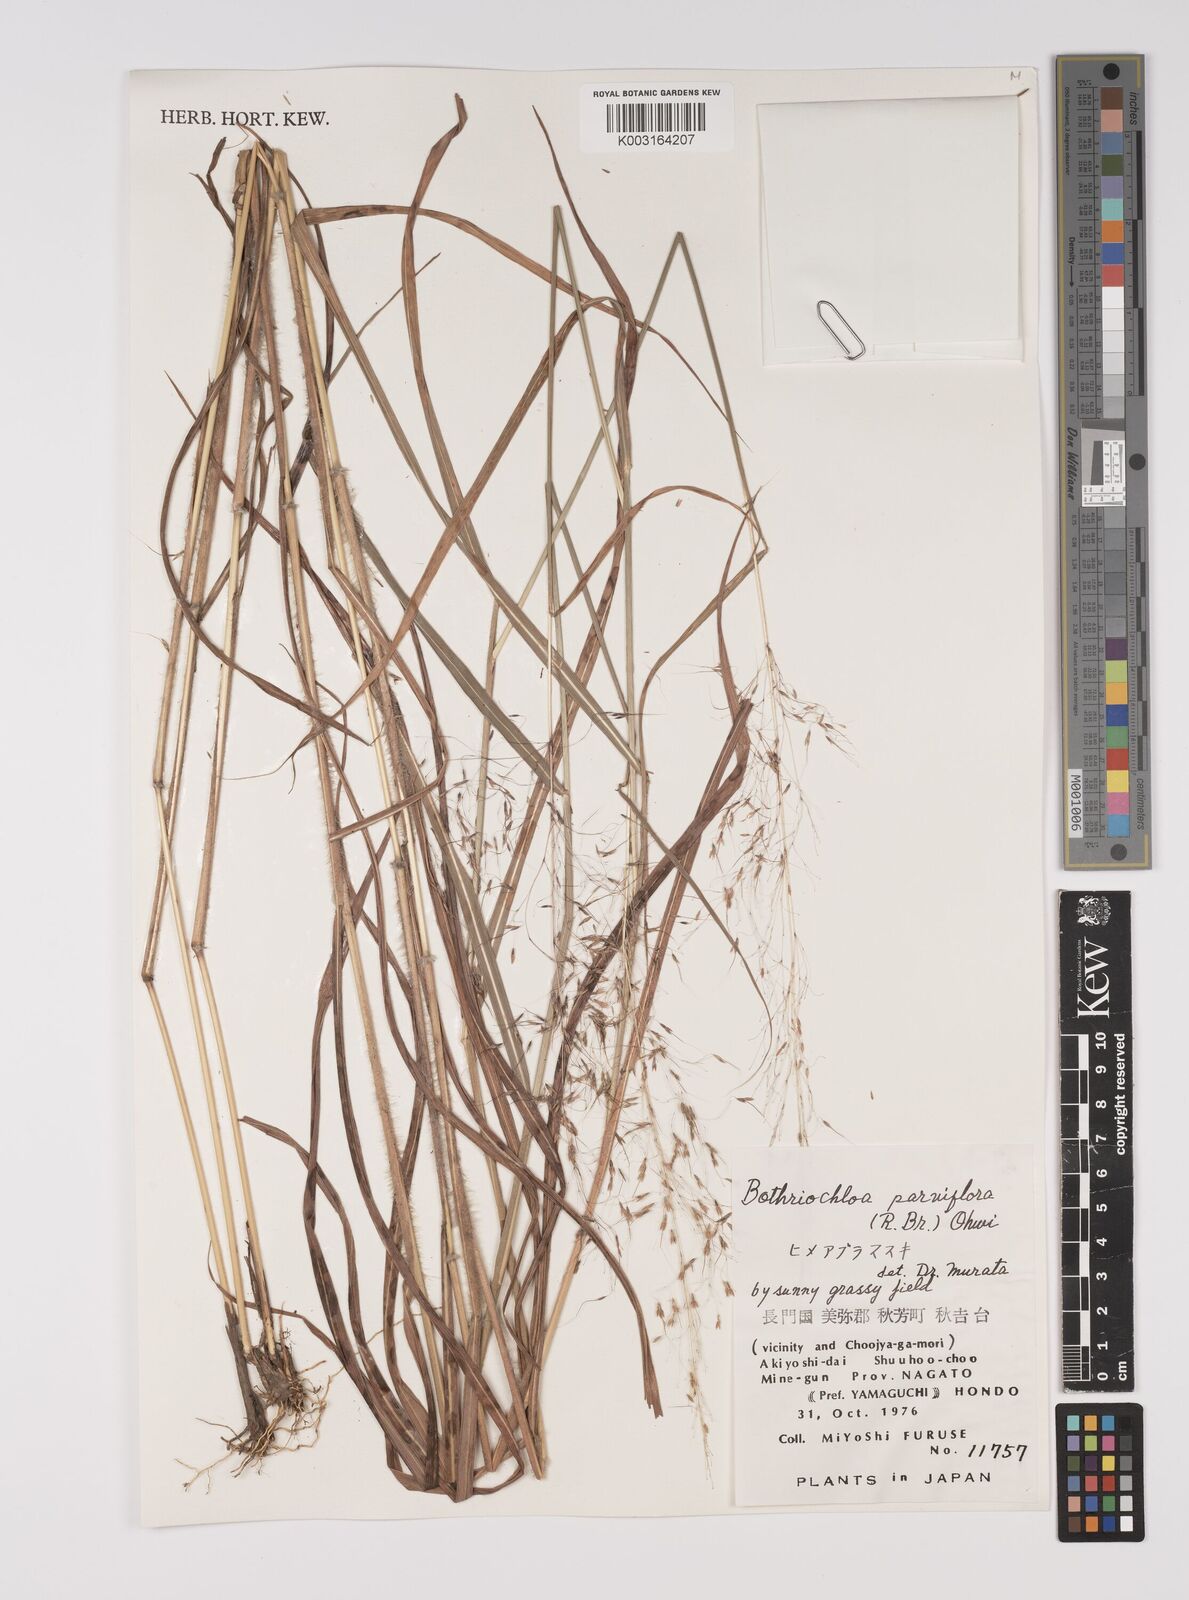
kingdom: Plantae
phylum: Tracheophyta
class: Liliopsida
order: Poales
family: Poaceae
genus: Capillipedium
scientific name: Capillipedium parviflorum
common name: Golden-beard
